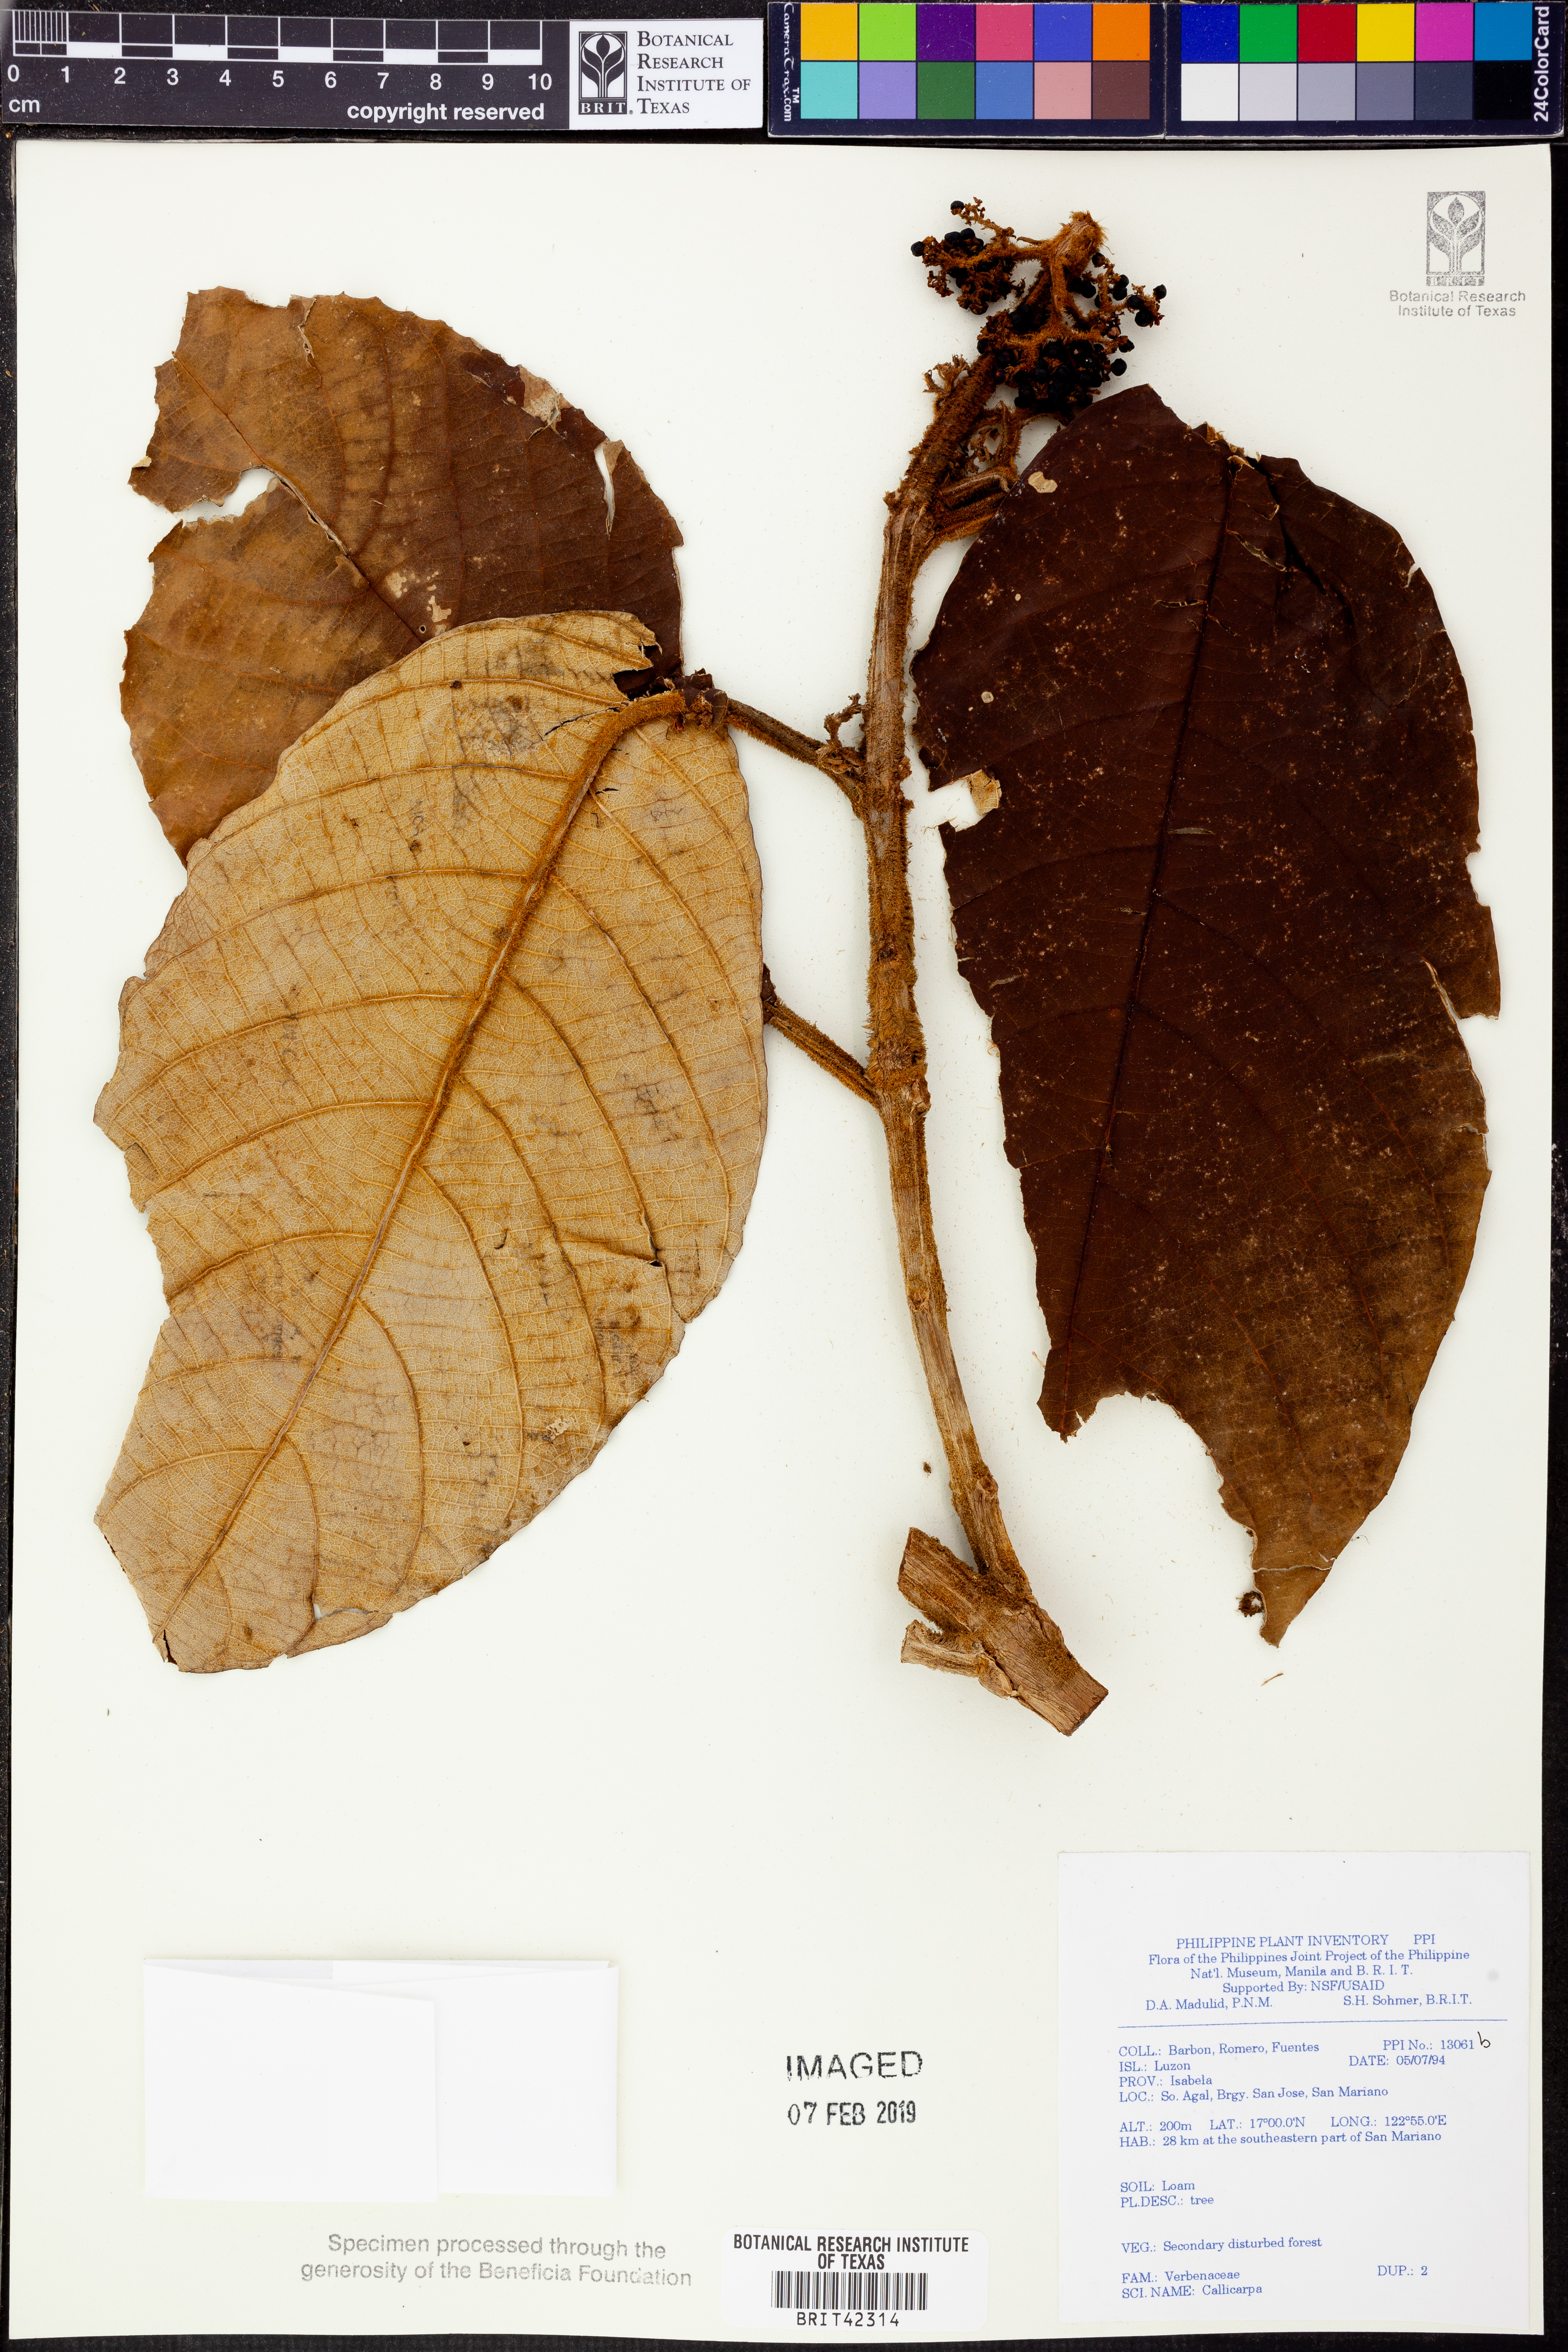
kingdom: Plantae
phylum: Tracheophyta
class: Magnoliopsida
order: Lamiales
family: Lamiaceae
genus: Callicarpa
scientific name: Callicarpa
